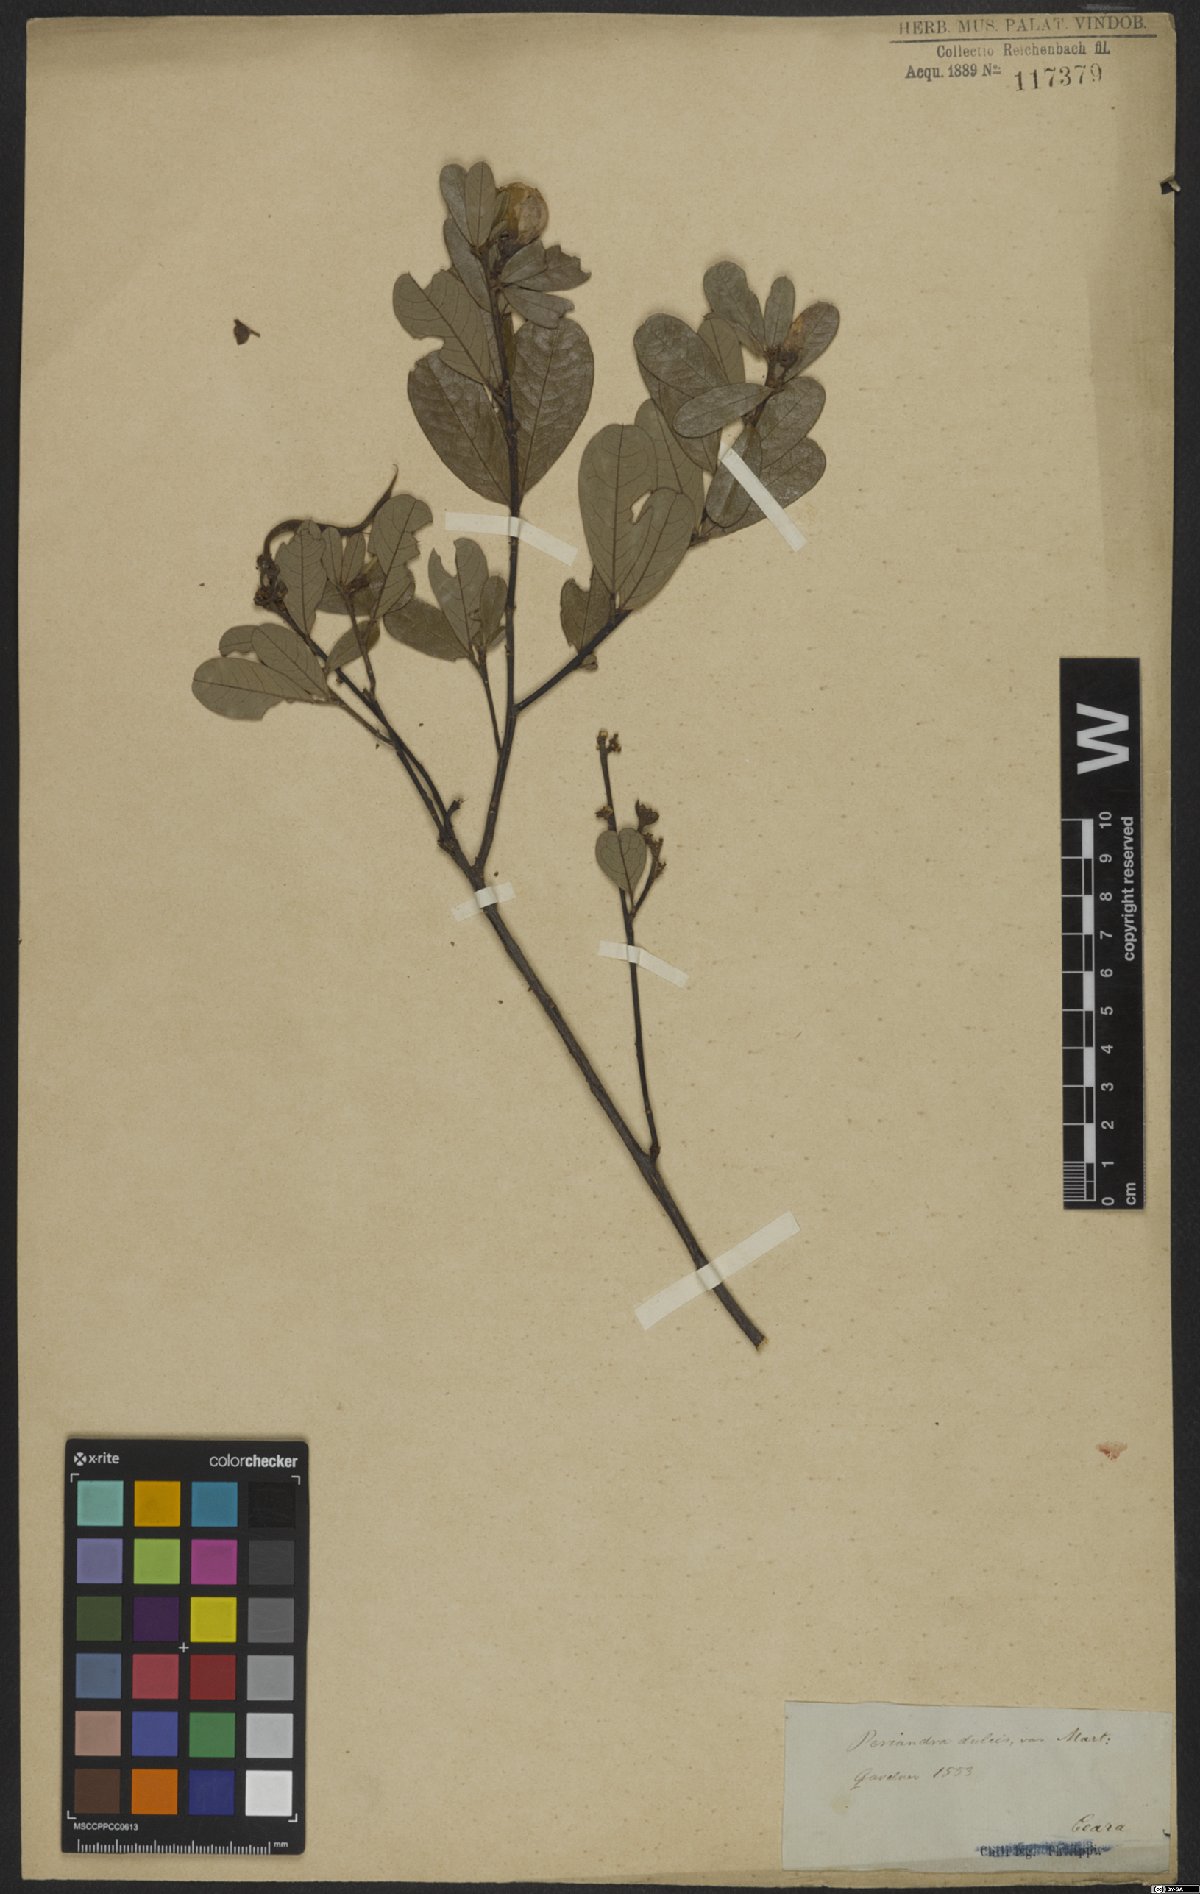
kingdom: Plantae
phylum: Tracheophyta
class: Magnoliopsida
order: Fabales
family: Fabaceae
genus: Periandra
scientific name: Periandra mediterranea
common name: Brazilian licorice
